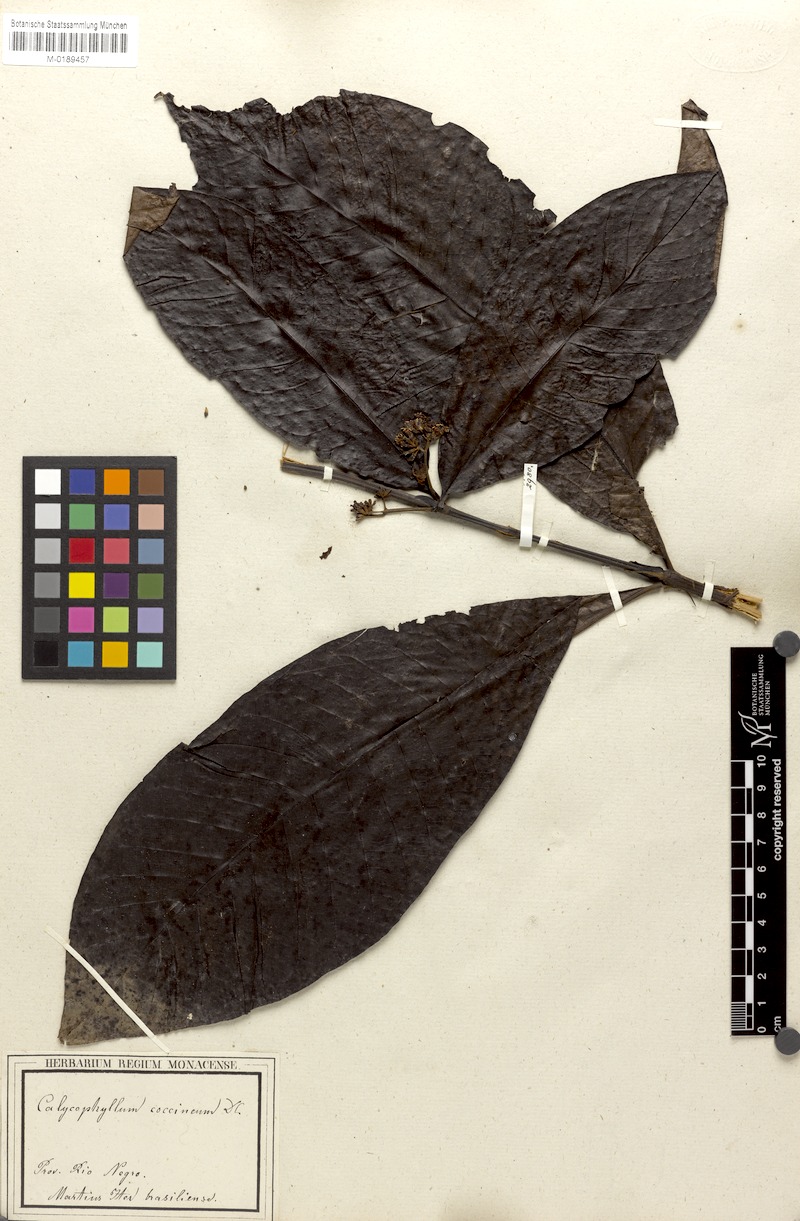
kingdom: Plantae
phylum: Tracheophyta
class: Magnoliopsida
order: Gentianales
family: Rubiaceae
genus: Warszewiczia
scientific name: Warszewiczia coccinea
